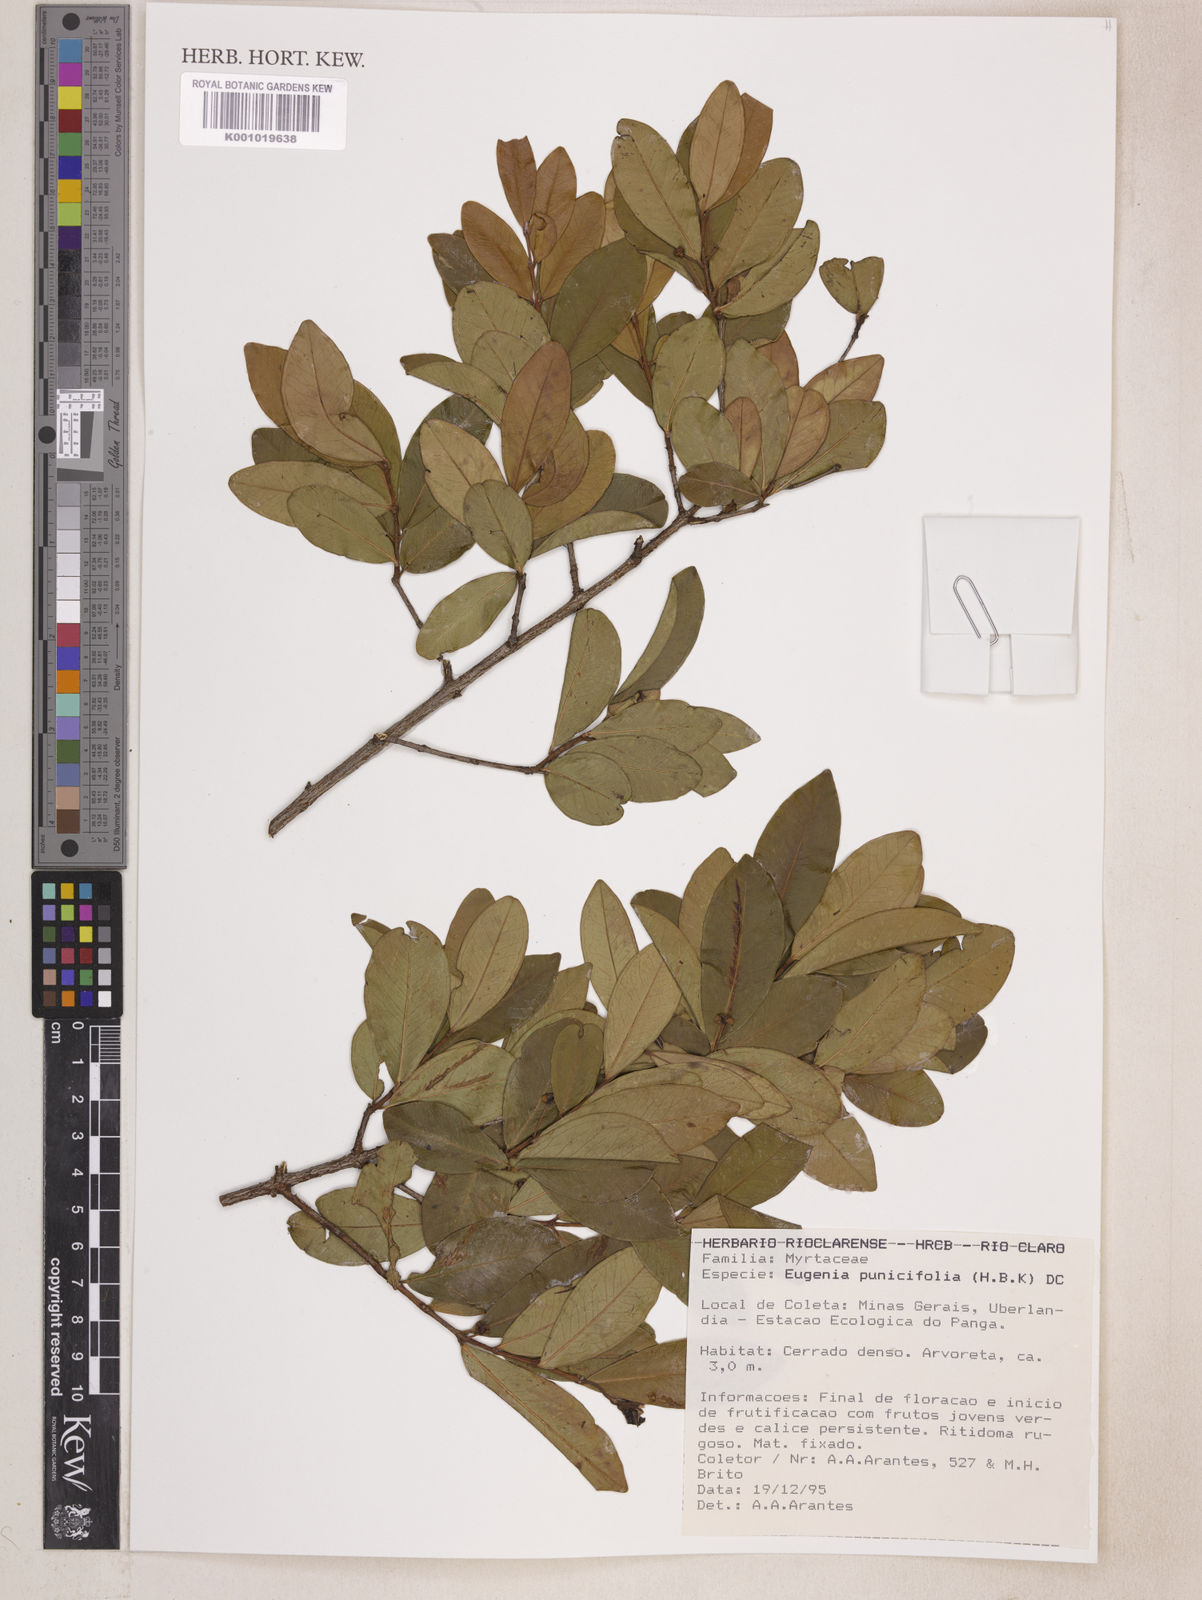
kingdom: Plantae
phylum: Tracheophyta
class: Magnoliopsida
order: Myrtales
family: Myrtaceae
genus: Eugenia
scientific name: Eugenia punicifolia
